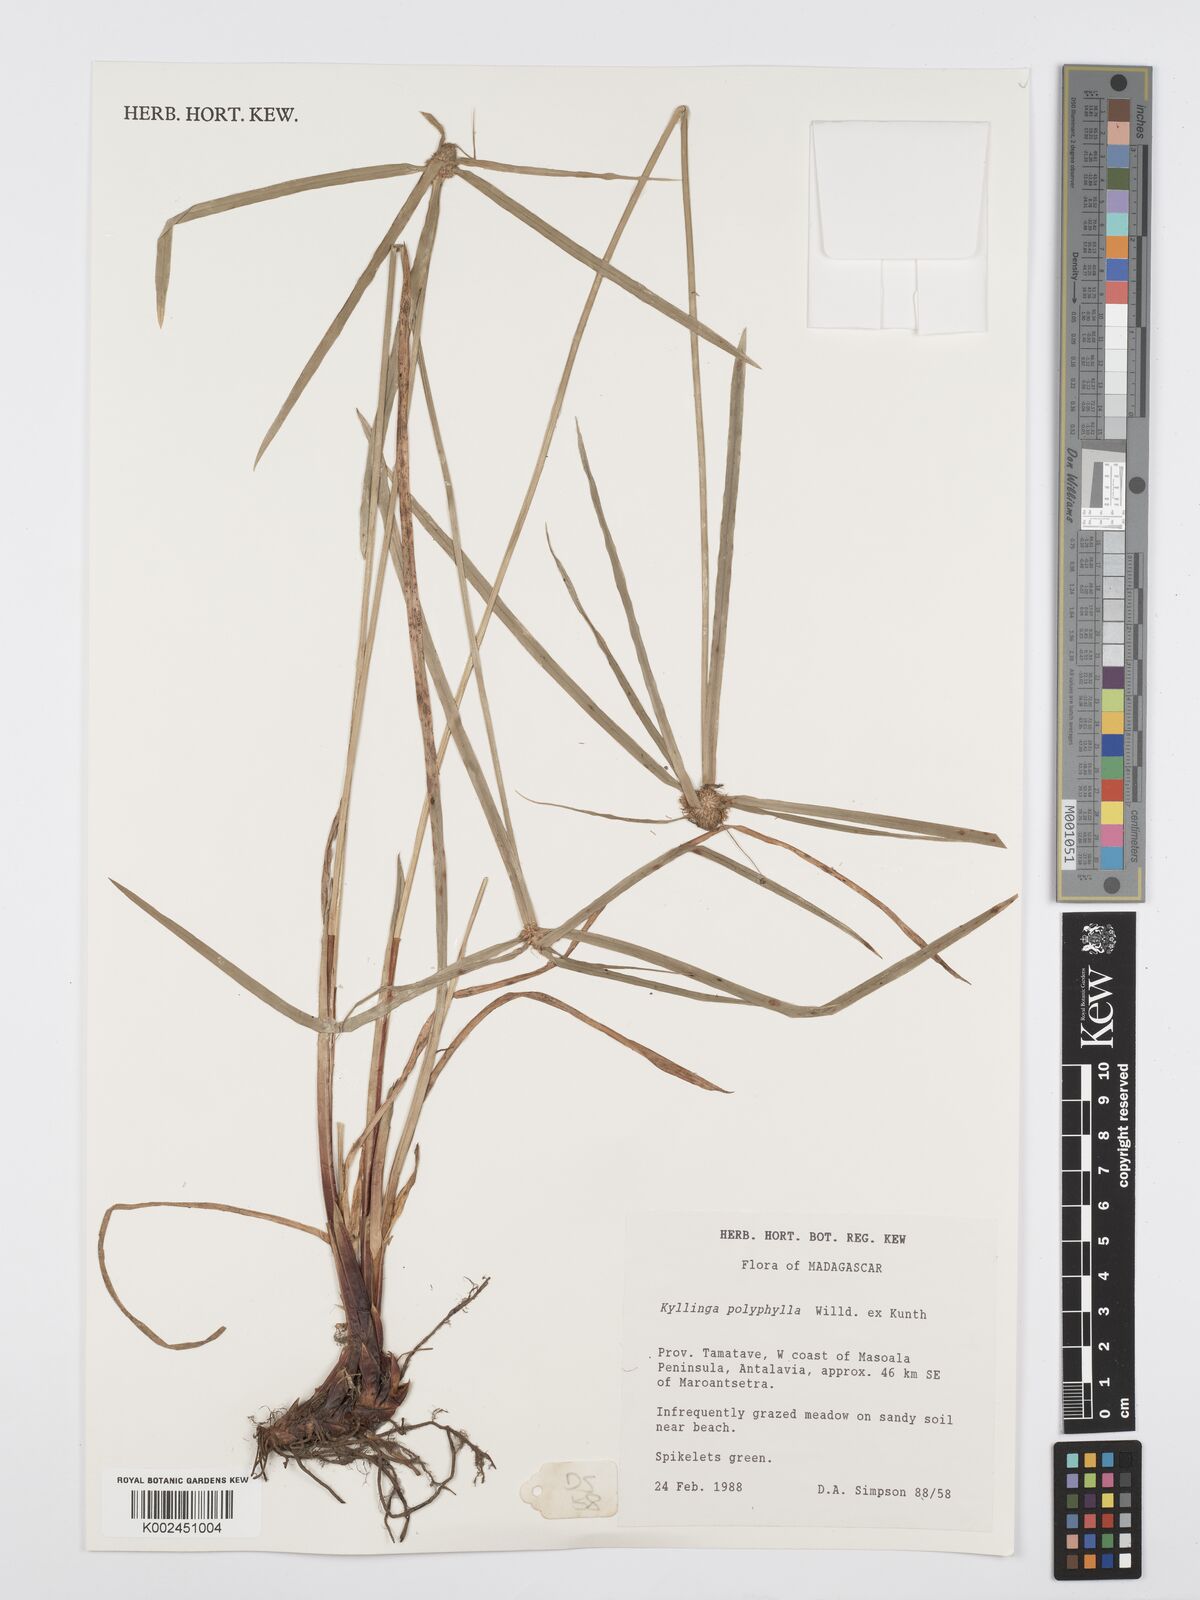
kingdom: Plantae
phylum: Tracheophyta
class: Liliopsida
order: Poales
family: Cyperaceae
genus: Cyperus
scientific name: Cyperus
